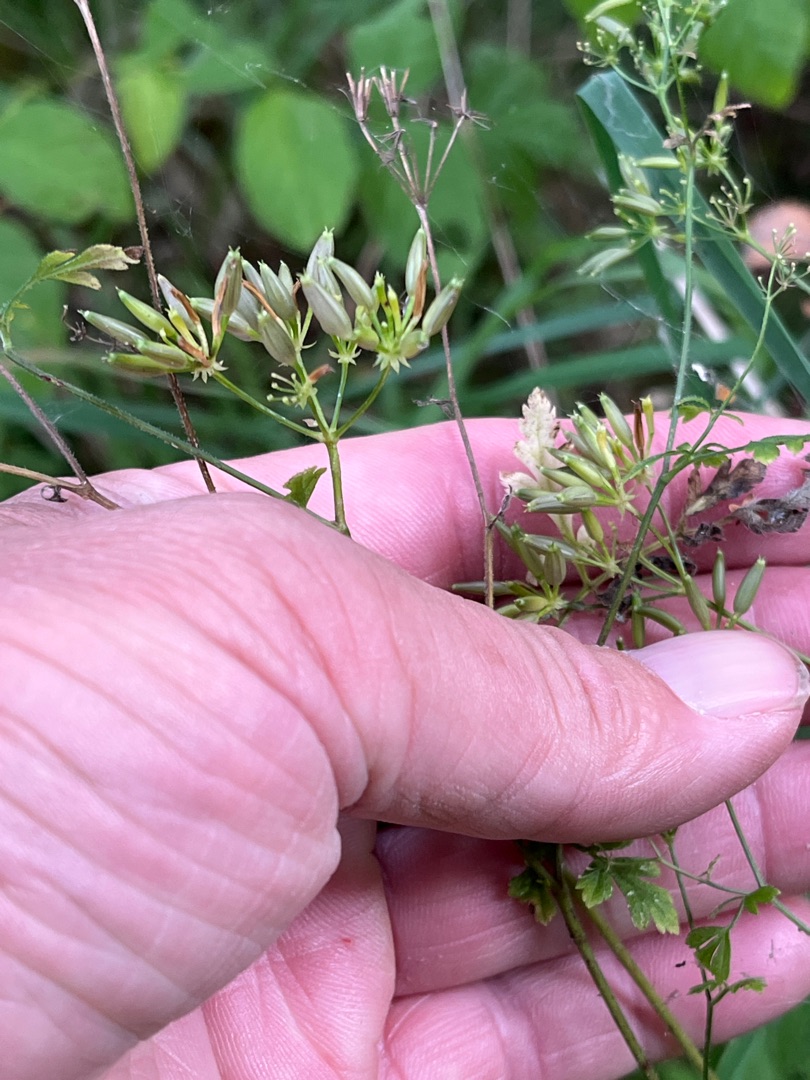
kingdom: Plantae
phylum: Tracheophyta
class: Magnoliopsida
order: Apiales
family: Apiaceae
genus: Chaerophyllum
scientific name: Chaerophyllum temulum
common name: Almindelig hulsvøb
